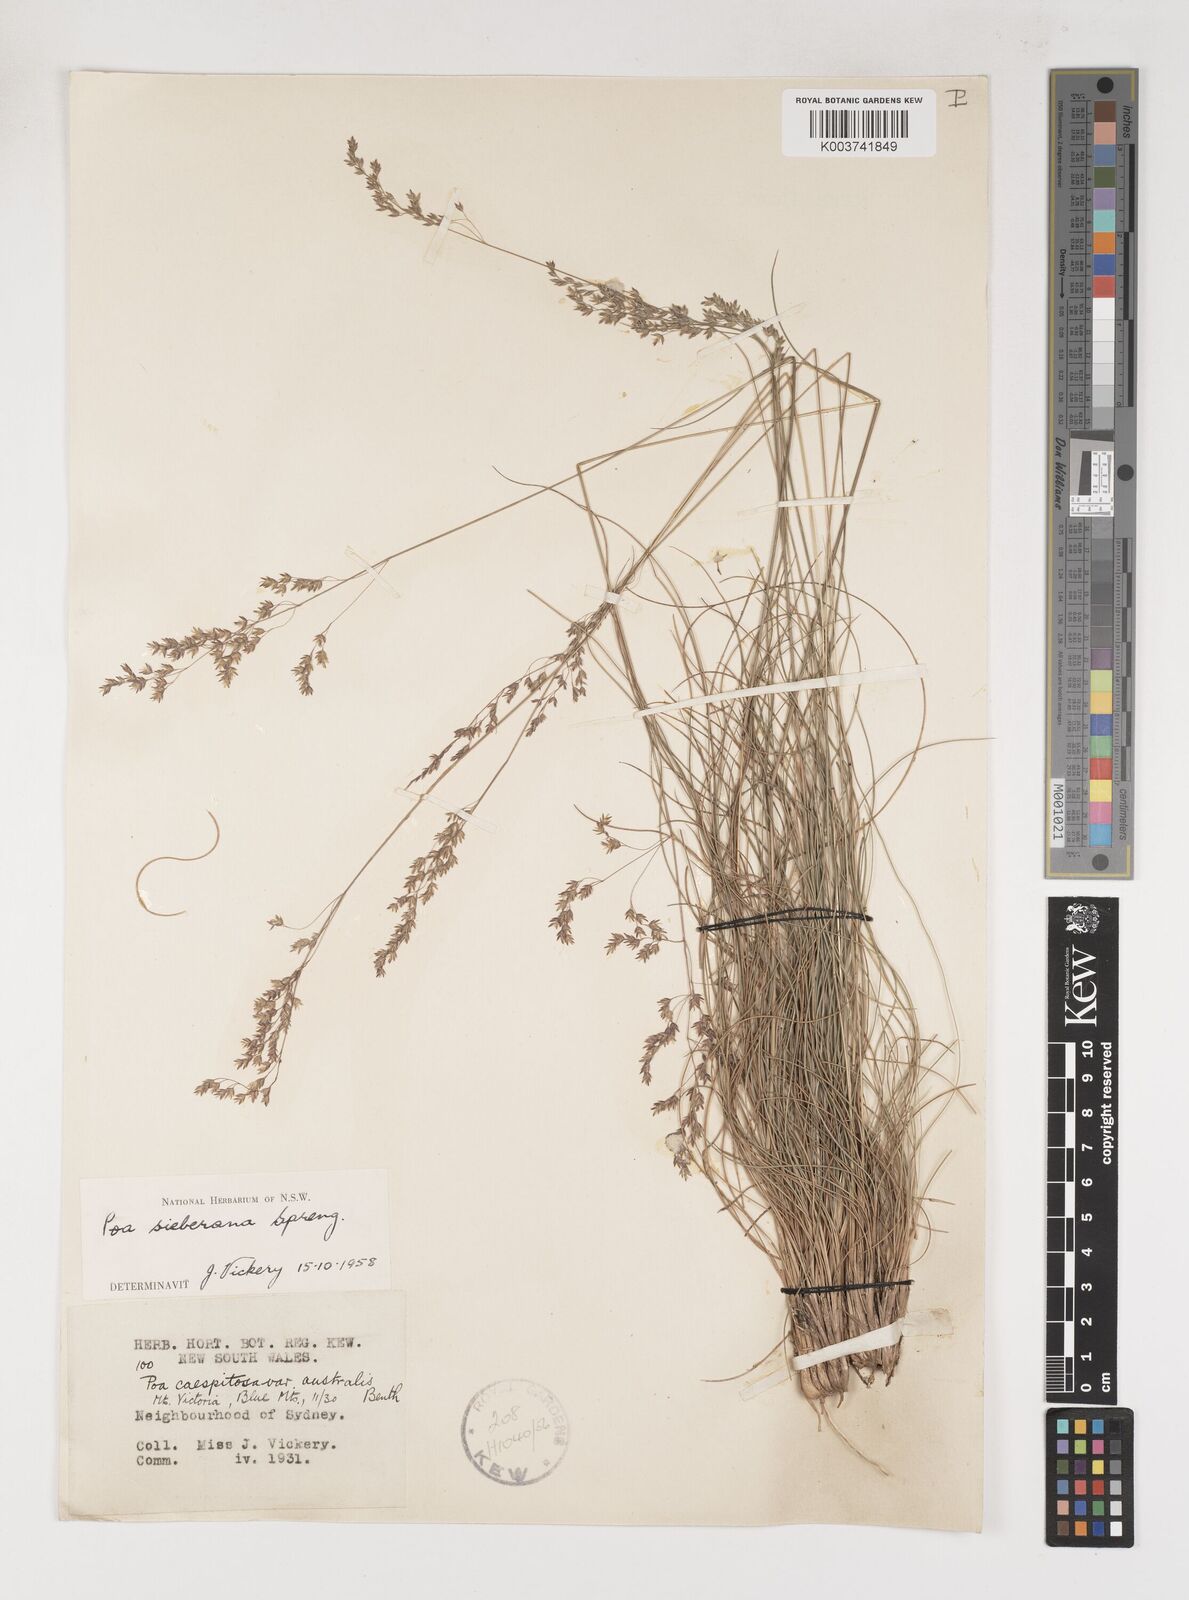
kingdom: Plantae
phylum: Tracheophyta
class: Liliopsida
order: Poales
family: Poaceae
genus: Poa
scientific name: Poa sieberiana
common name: Tussock poa
